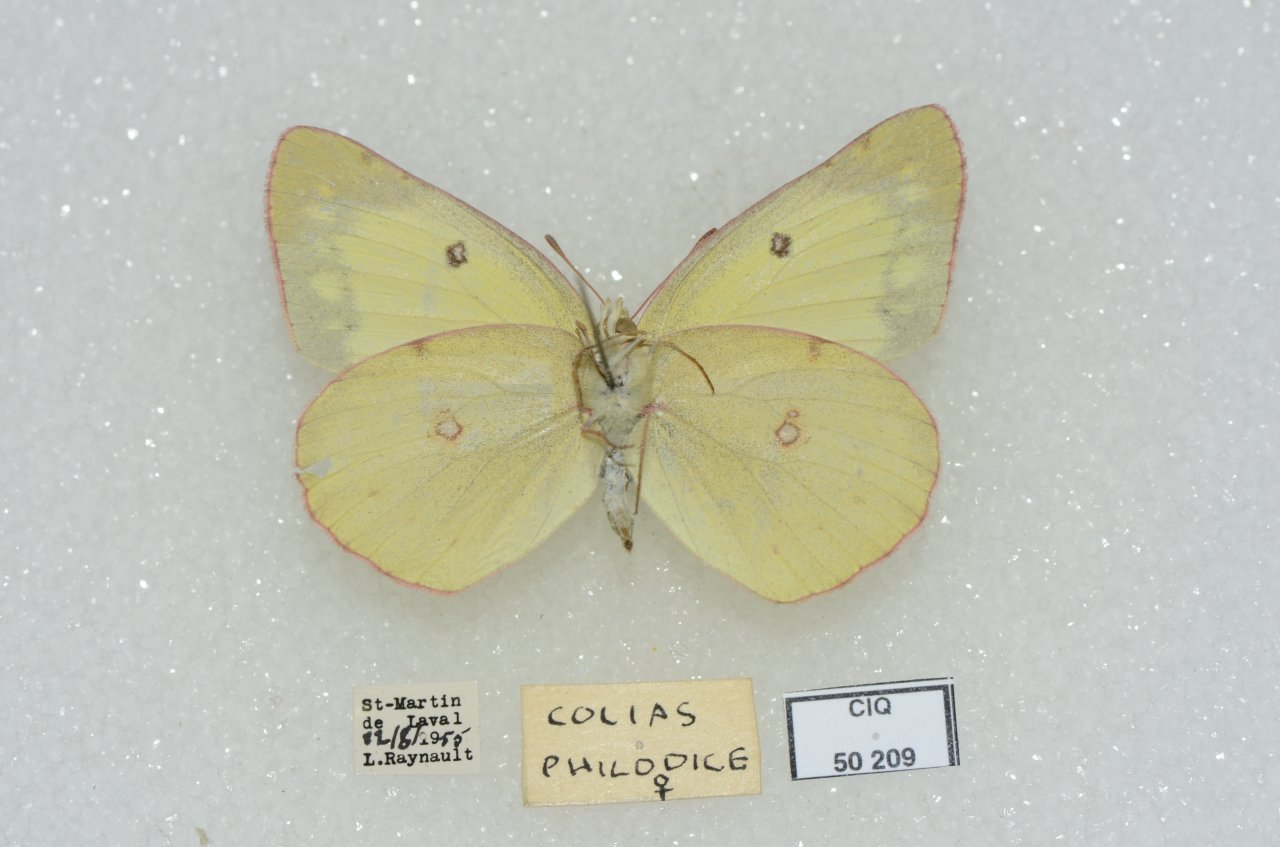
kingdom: Animalia
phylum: Arthropoda
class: Insecta
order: Lepidoptera
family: Pieridae
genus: Colias
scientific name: Colias philodice
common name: Clouded Sulphur
